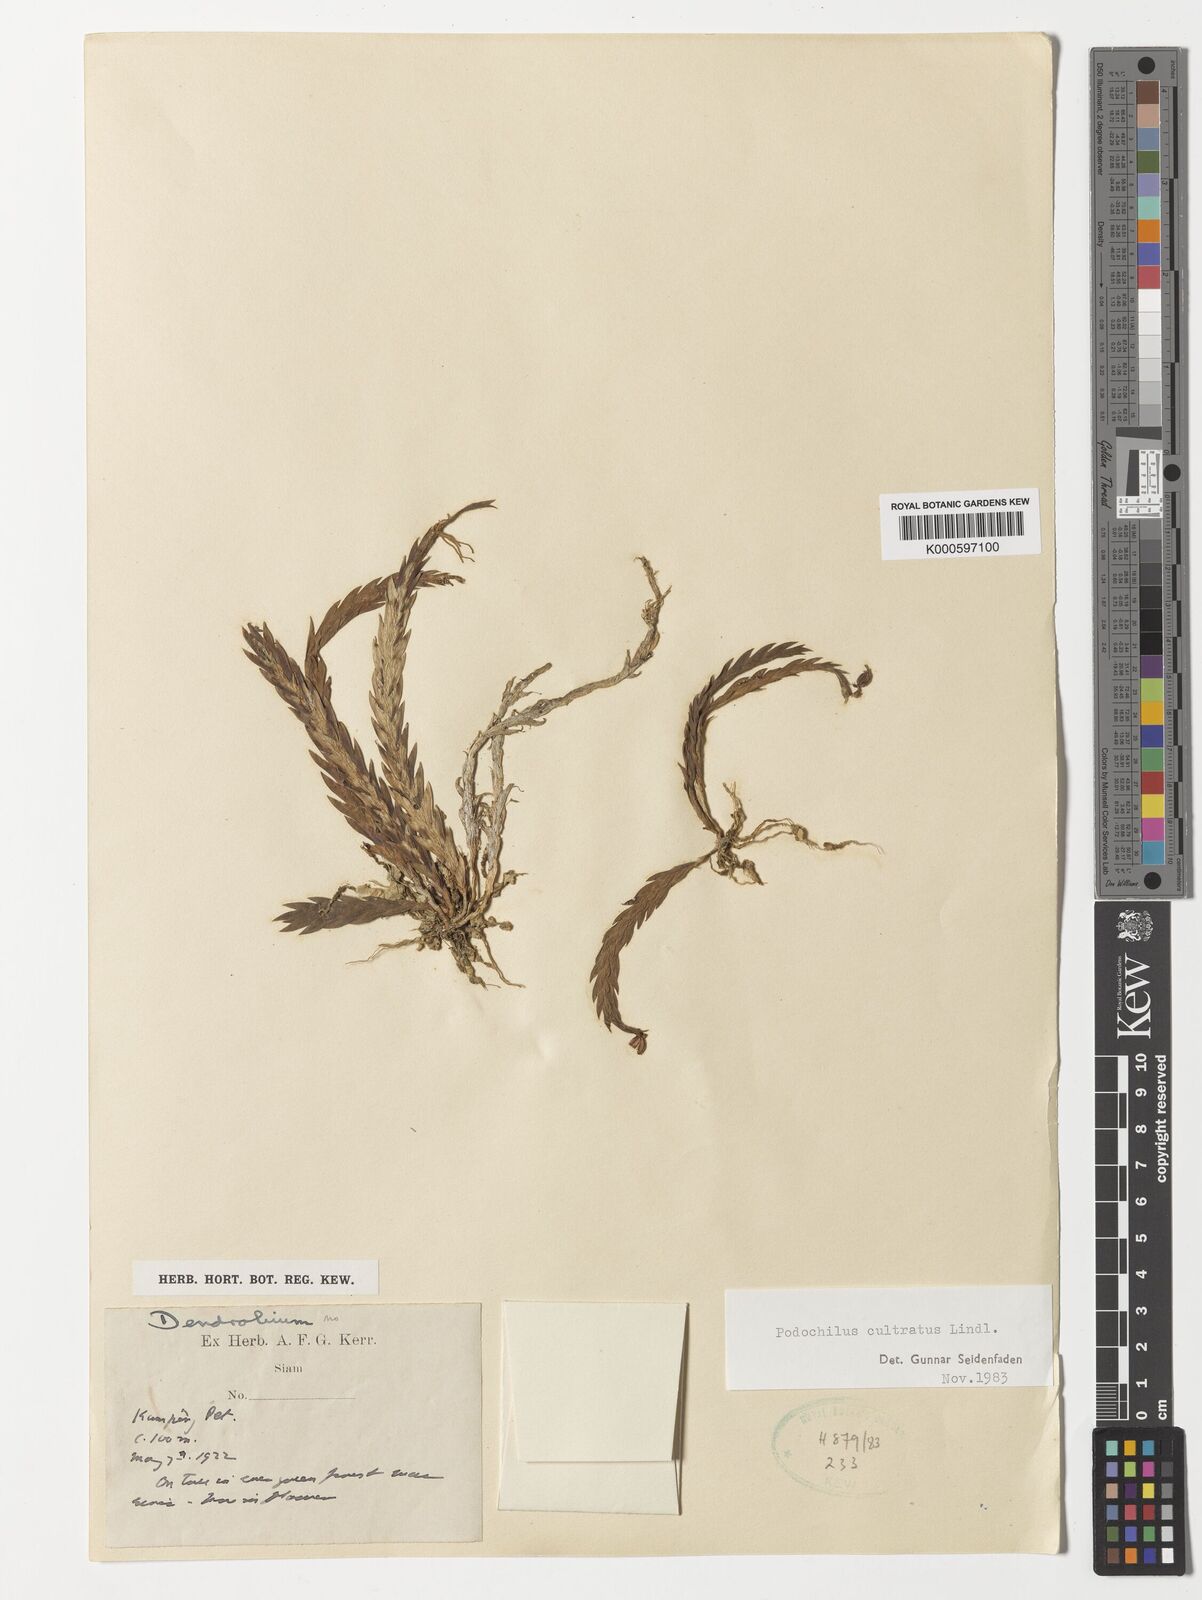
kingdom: Plantae
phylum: Tracheophyta
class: Liliopsida
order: Asparagales
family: Orchidaceae
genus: Podochilus
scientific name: Podochilus cultratus
